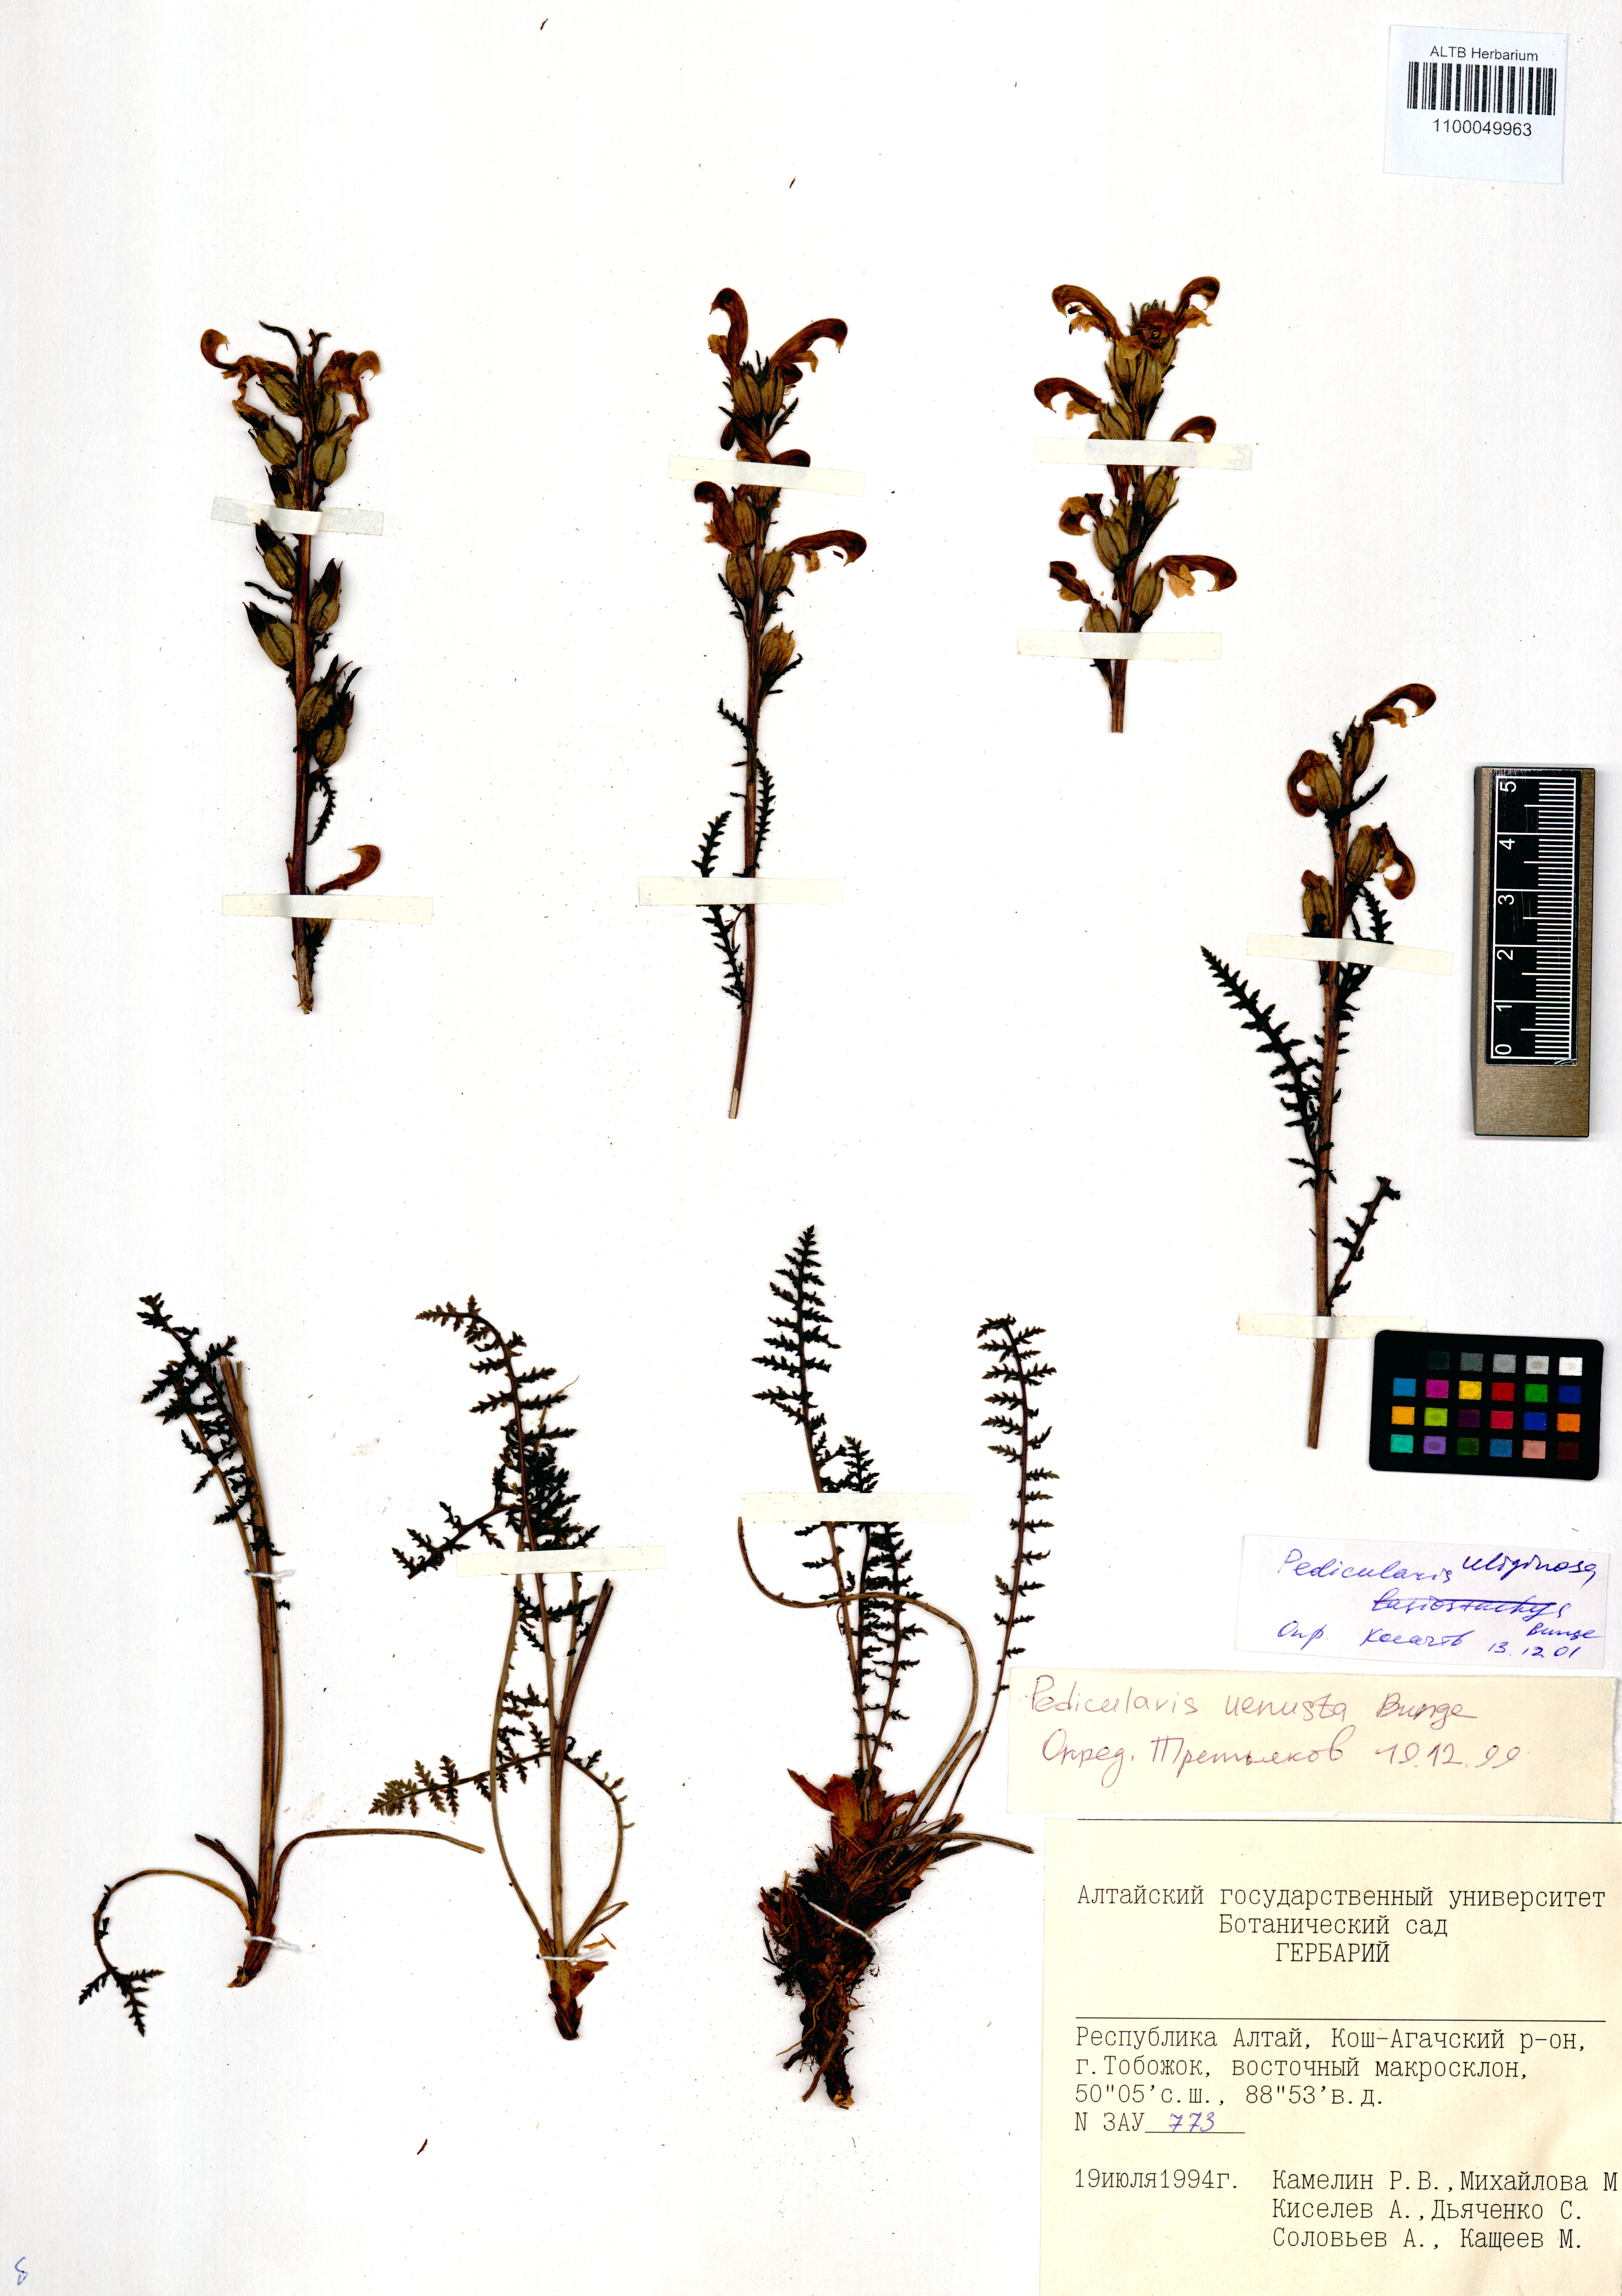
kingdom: Plantae
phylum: Tracheophyta
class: Magnoliopsida
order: Lamiales
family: Orobanchaceae
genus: Pedicularis
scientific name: Pedicularis uliginosa
